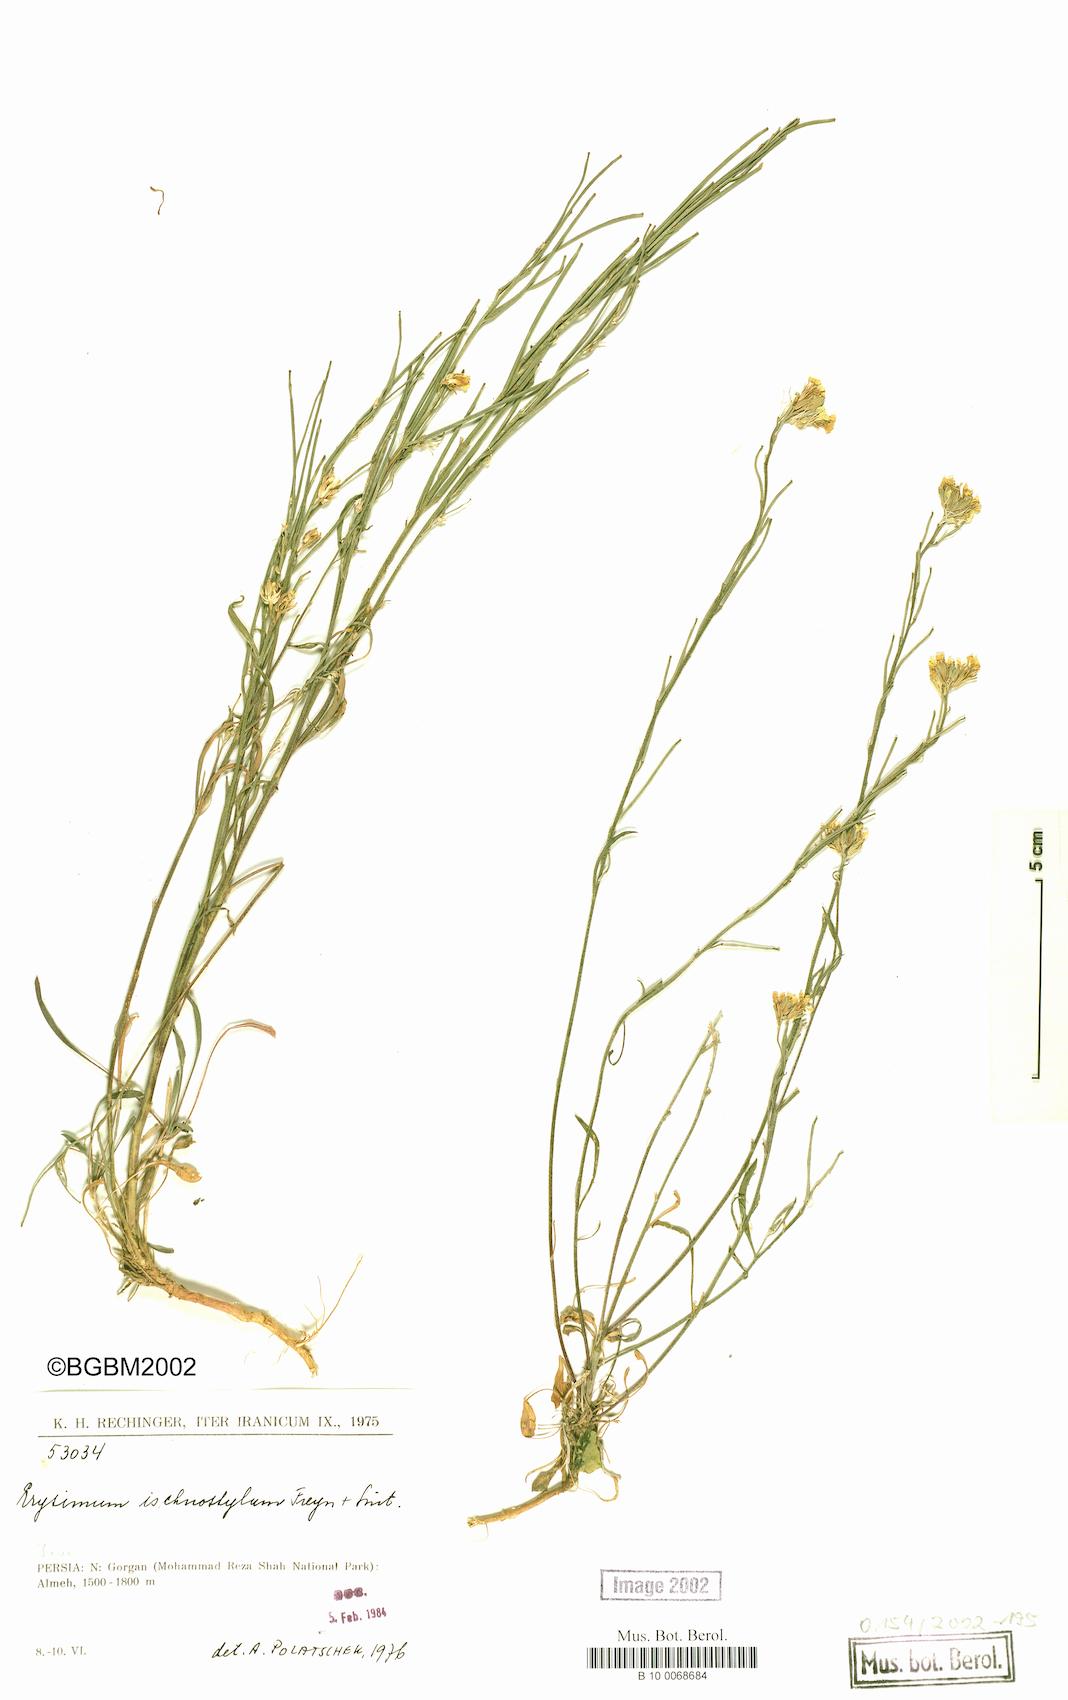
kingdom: Plantae
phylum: Tracheophyta
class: Magnoliopsida
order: Brassicales
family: Brassicaceae
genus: Erysimum
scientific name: Erysimum ischnostylum
